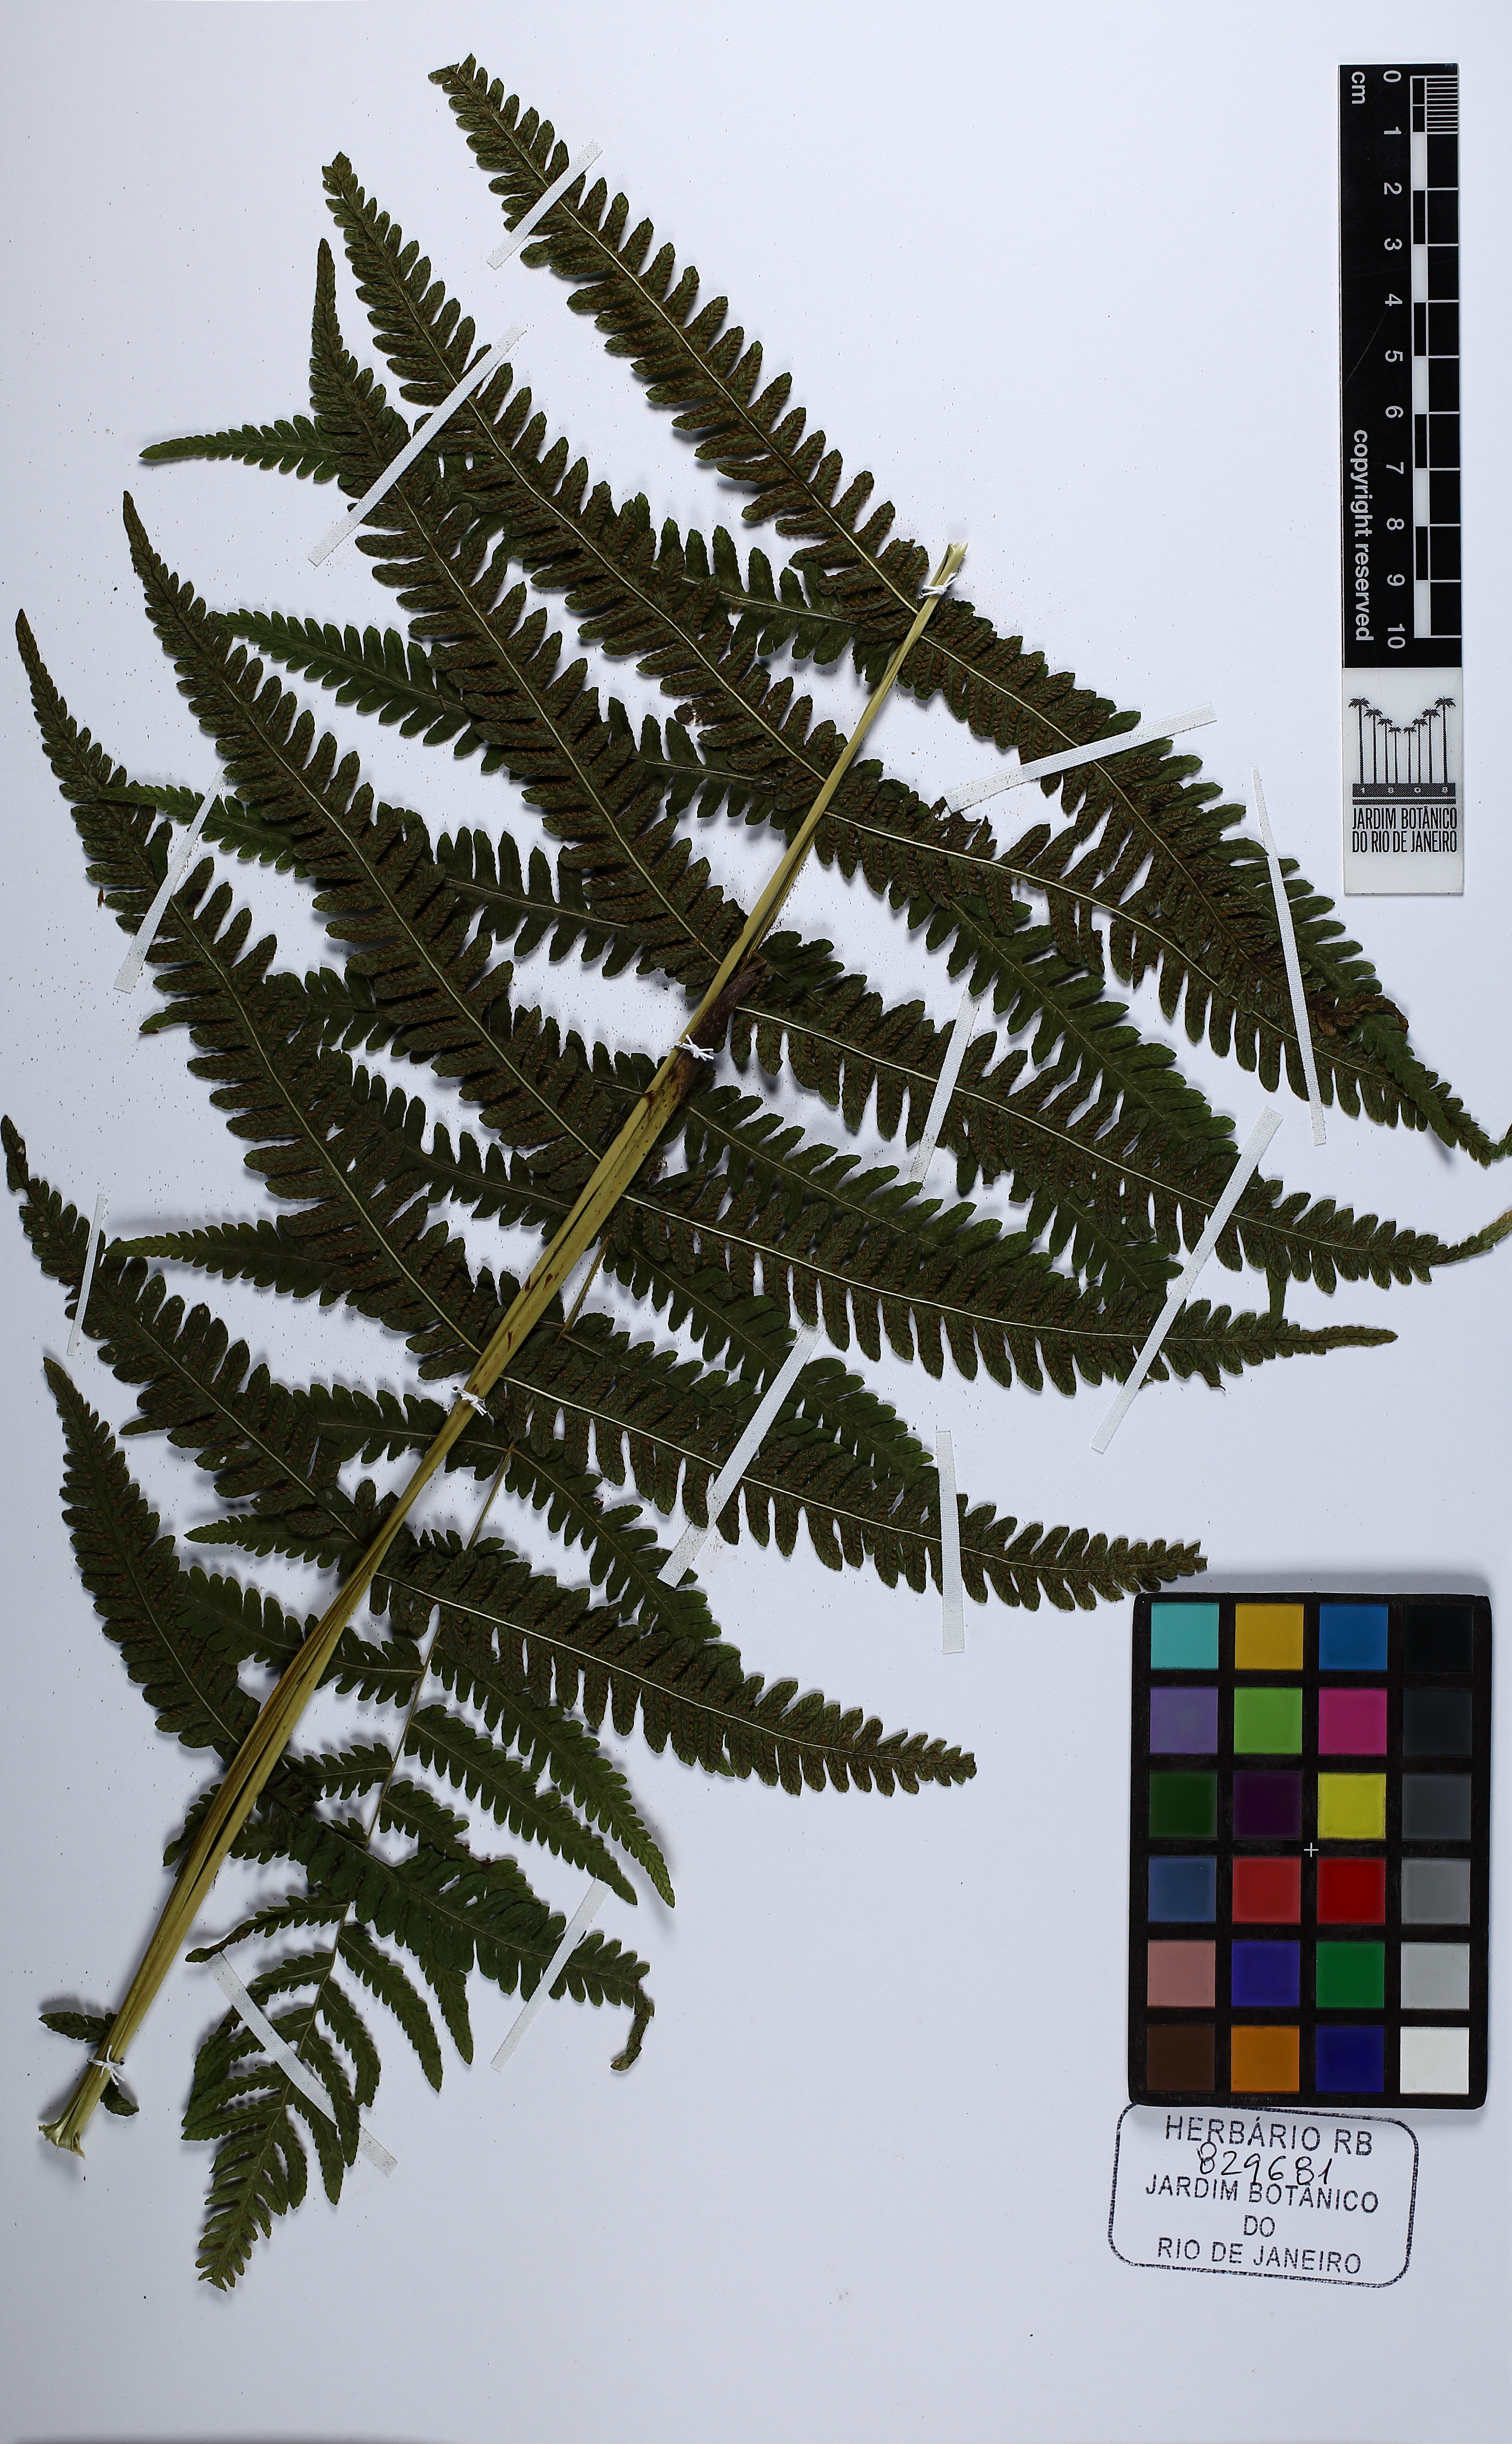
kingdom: Plantae
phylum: Tracheophyta
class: Polypodiopsida
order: Polypodiales
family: Thelypteridaceae
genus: Amauropelta
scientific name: Amauropelta decurtata
